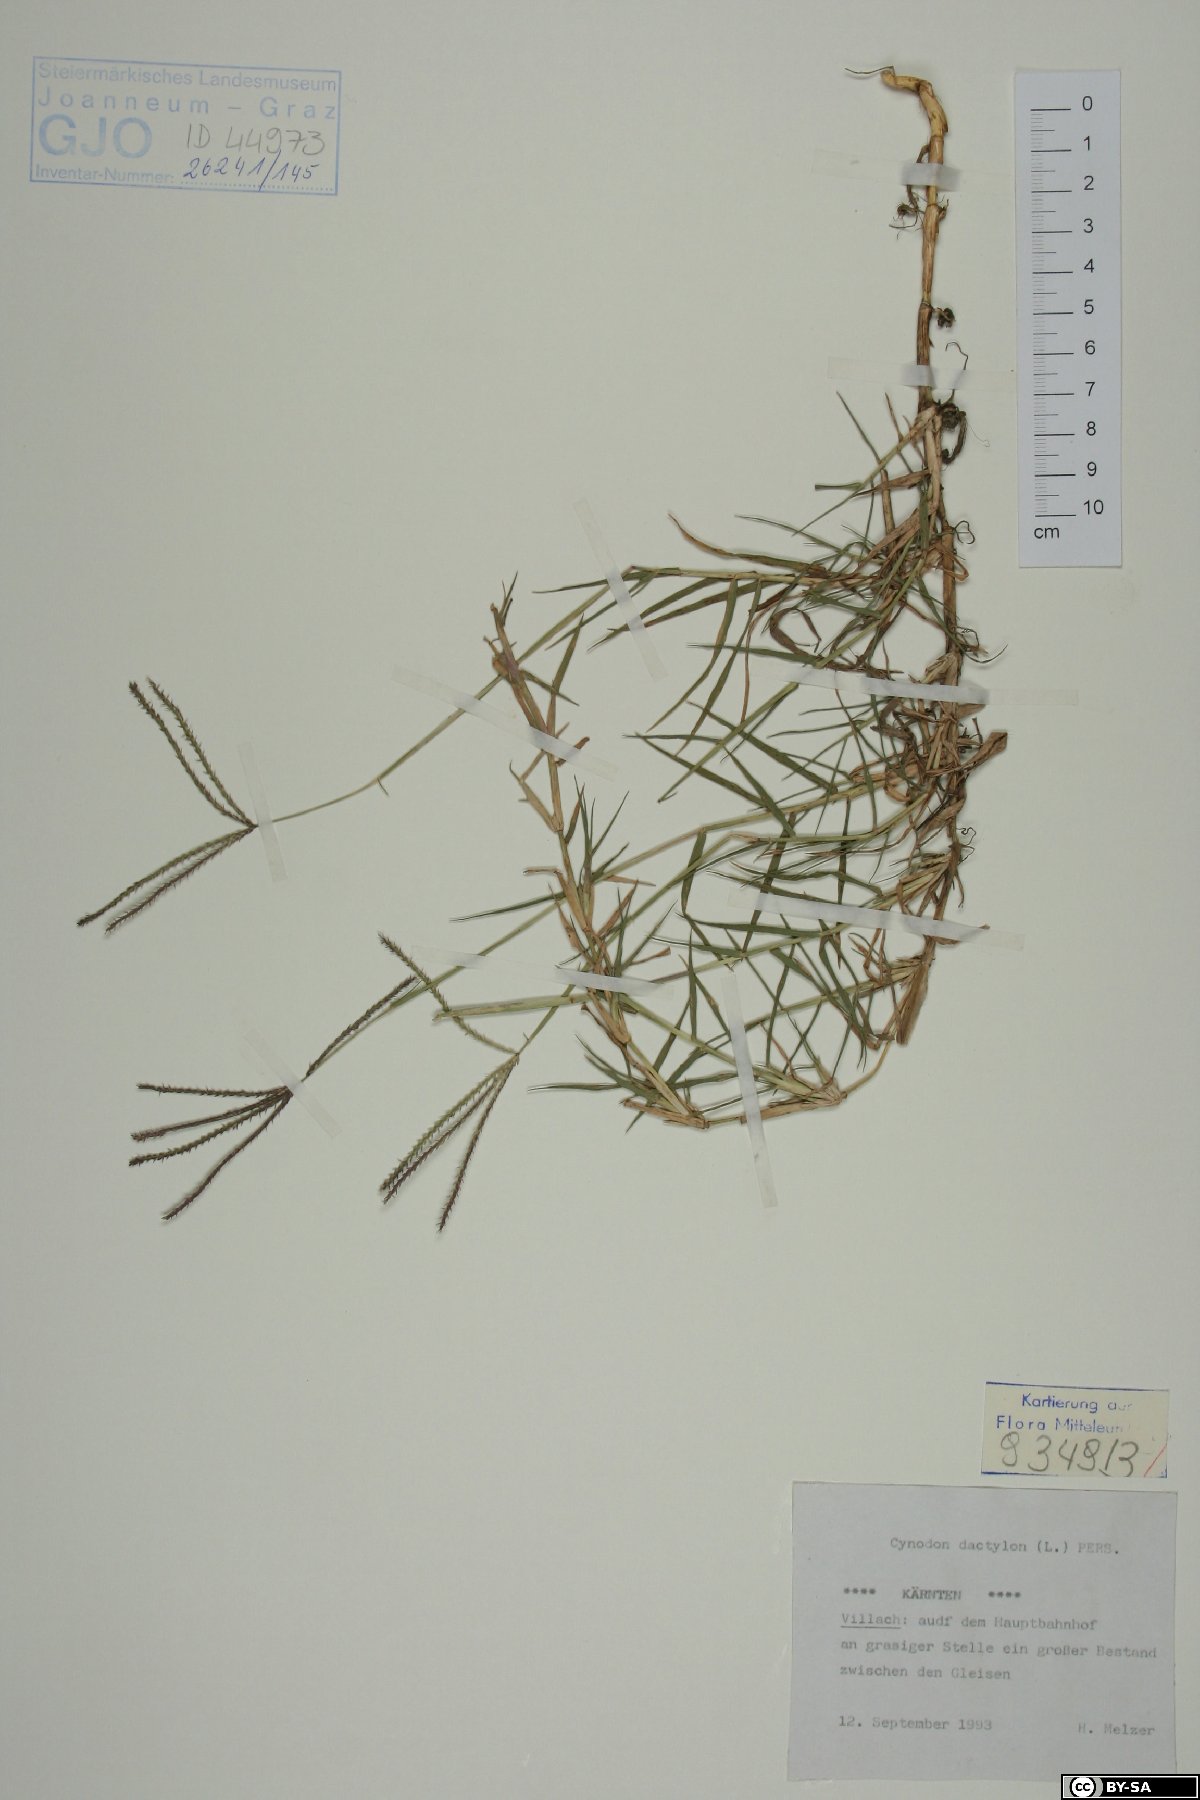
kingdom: Plantae
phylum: Tracheophyta
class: Liliopsida
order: Poales
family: Poaceae
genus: Cynodon
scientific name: Cynodon dactylon
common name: Bermuda grass
